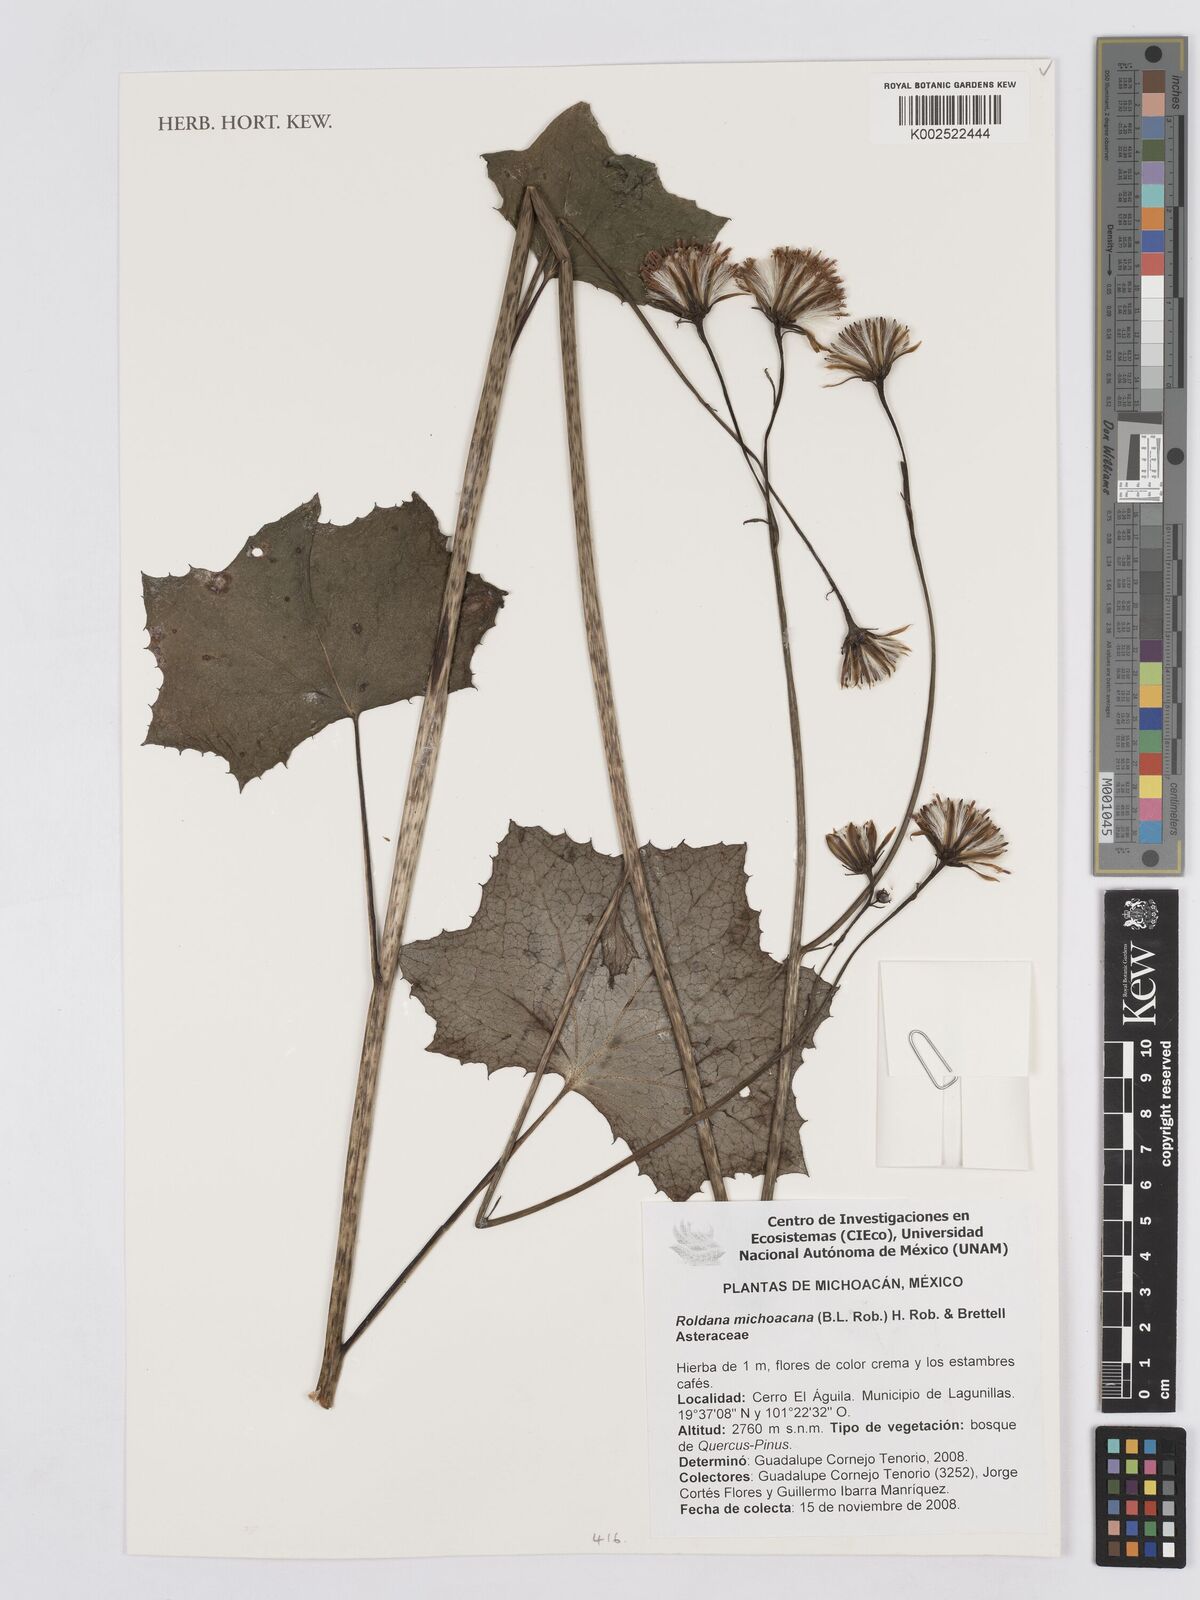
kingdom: Plantae
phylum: Tracheophyta
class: Magnoliopsida
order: Asterales
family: Asteraceae
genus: Roldana
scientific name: Roldana michoacana
